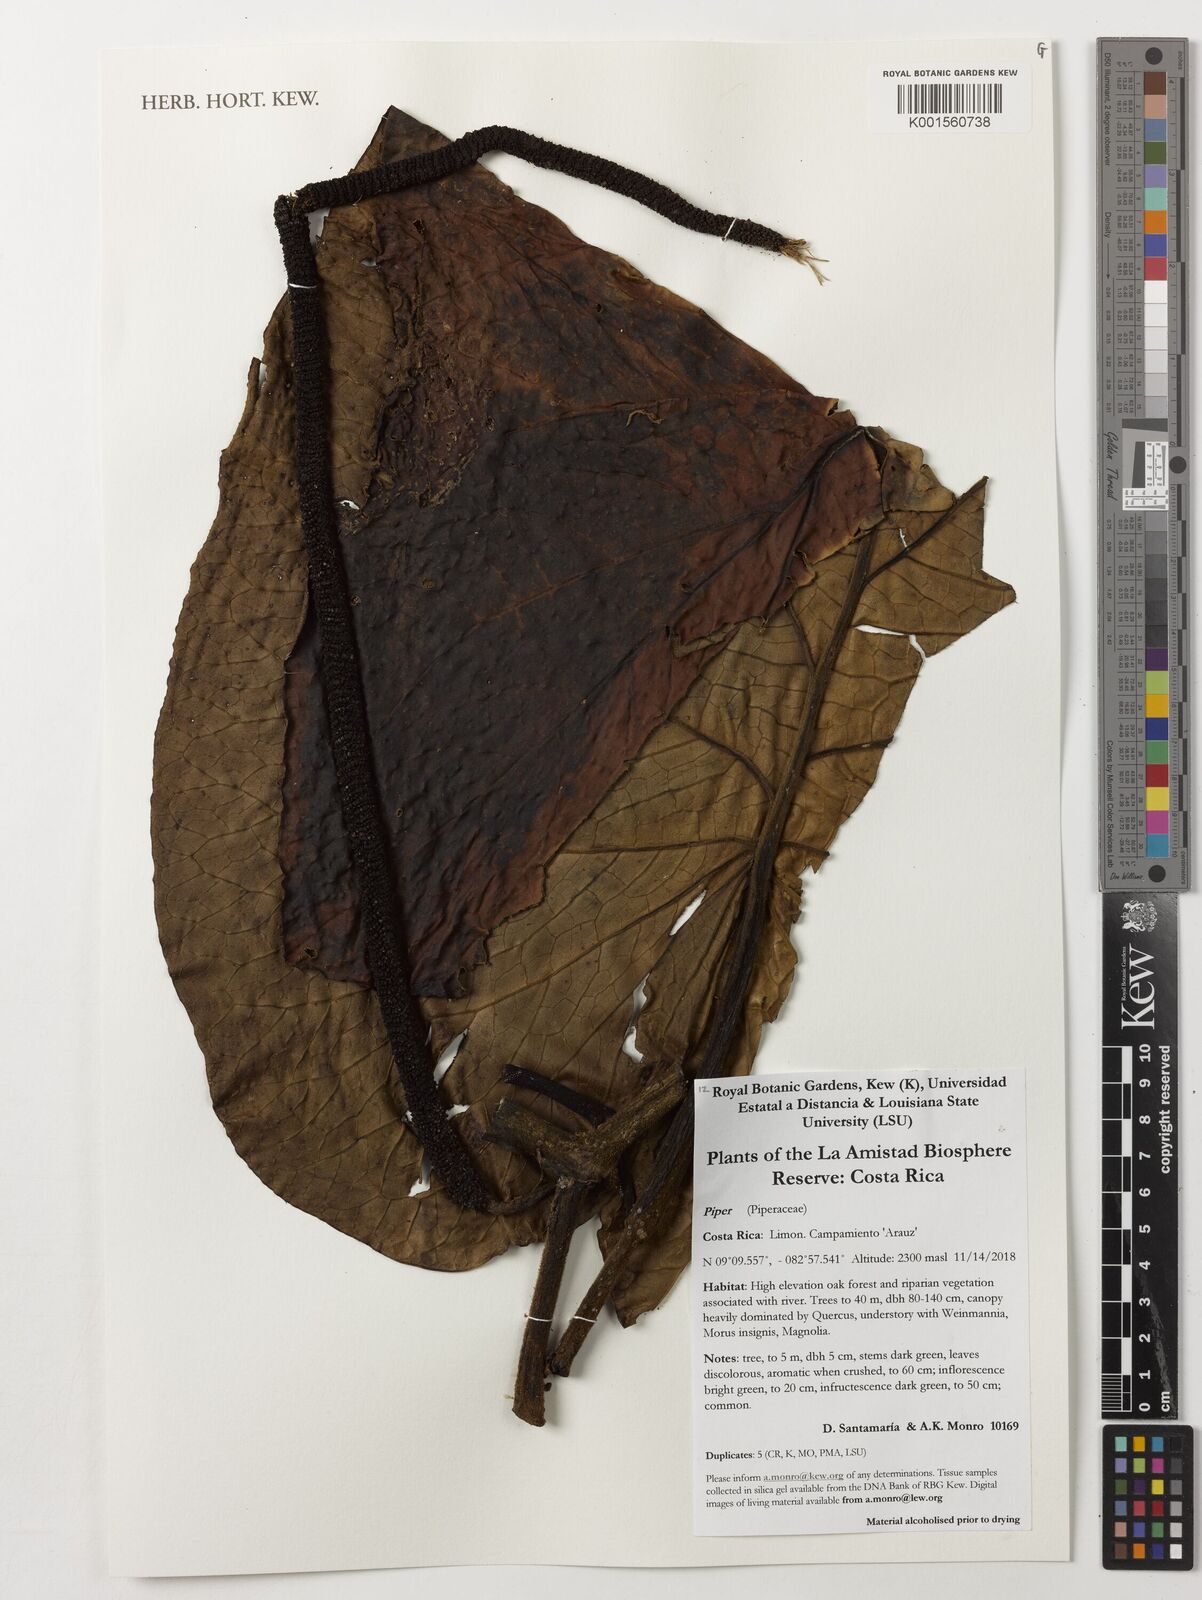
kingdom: Plantae
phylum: Tracheophyta
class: Magnoliopsida
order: Piperales
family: Piperaceae
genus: Piper
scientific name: Piper
